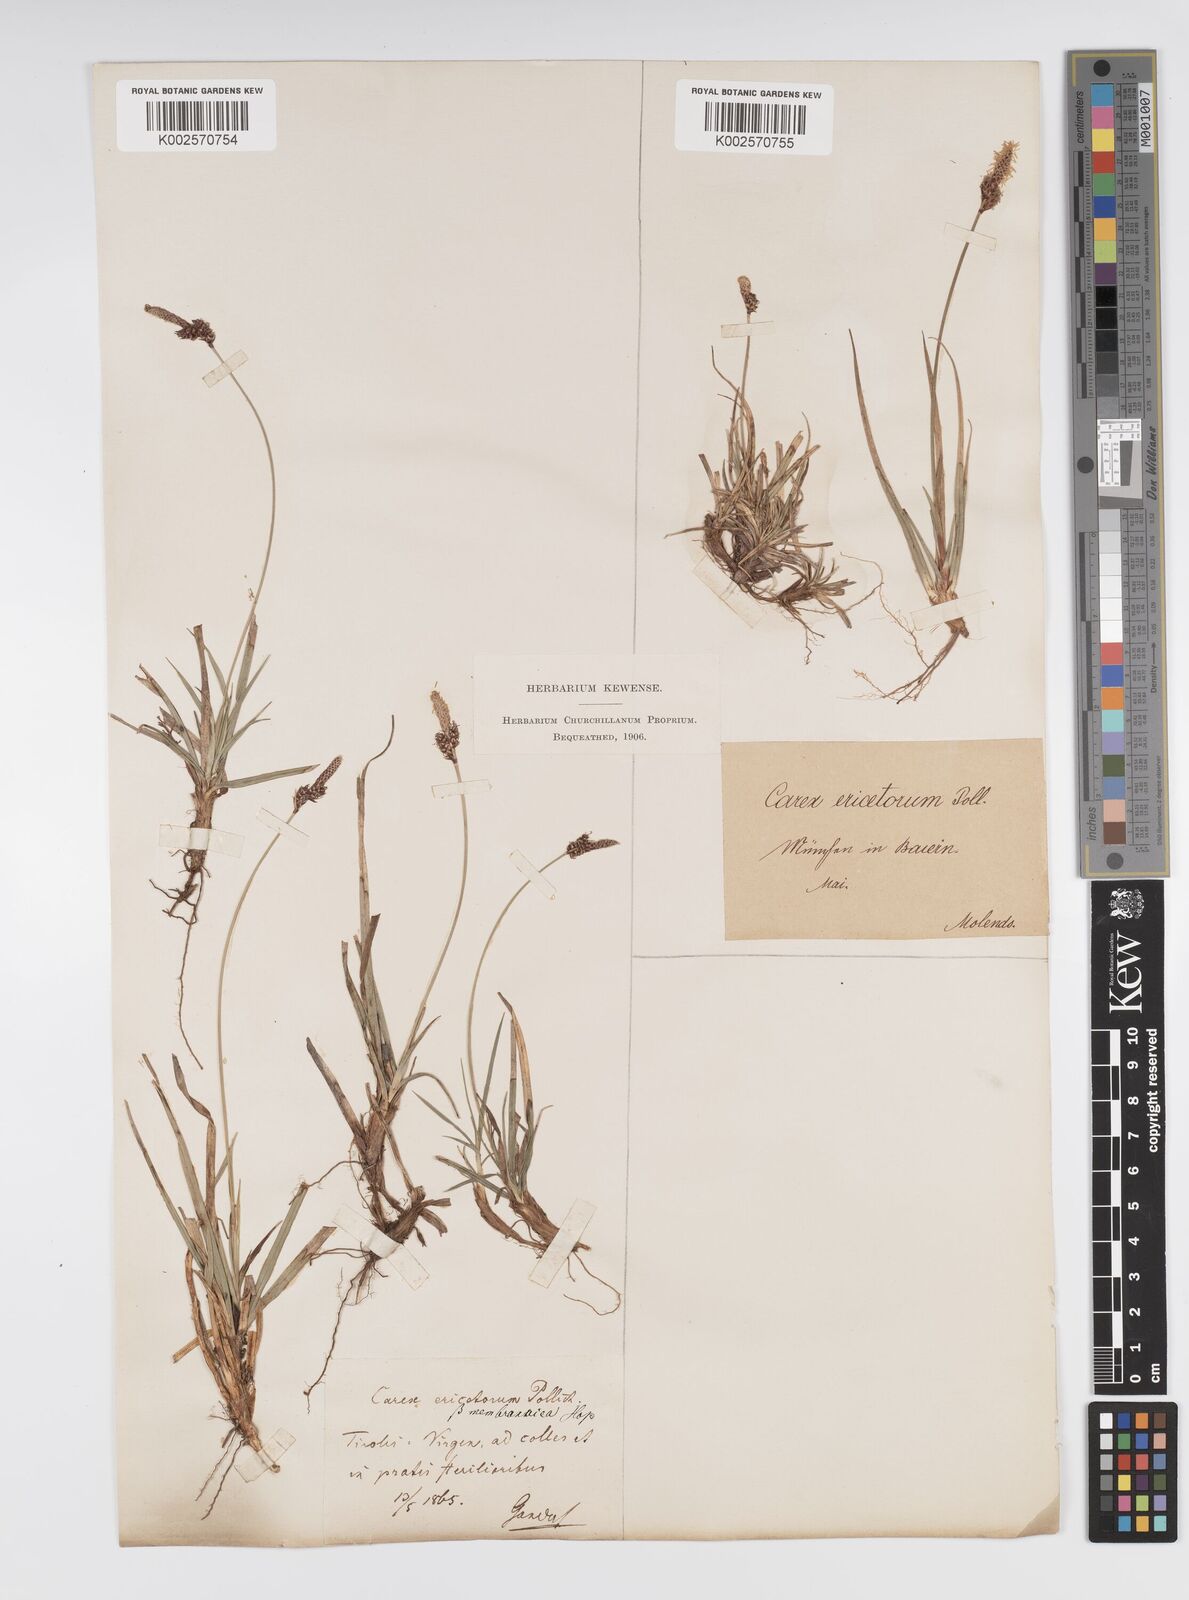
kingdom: Plantae
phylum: Tracheophyta
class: Liliopsida
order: Poales
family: Cyperaceae
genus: Carex
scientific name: Carex ericetorum
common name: Rare spring-sedge
